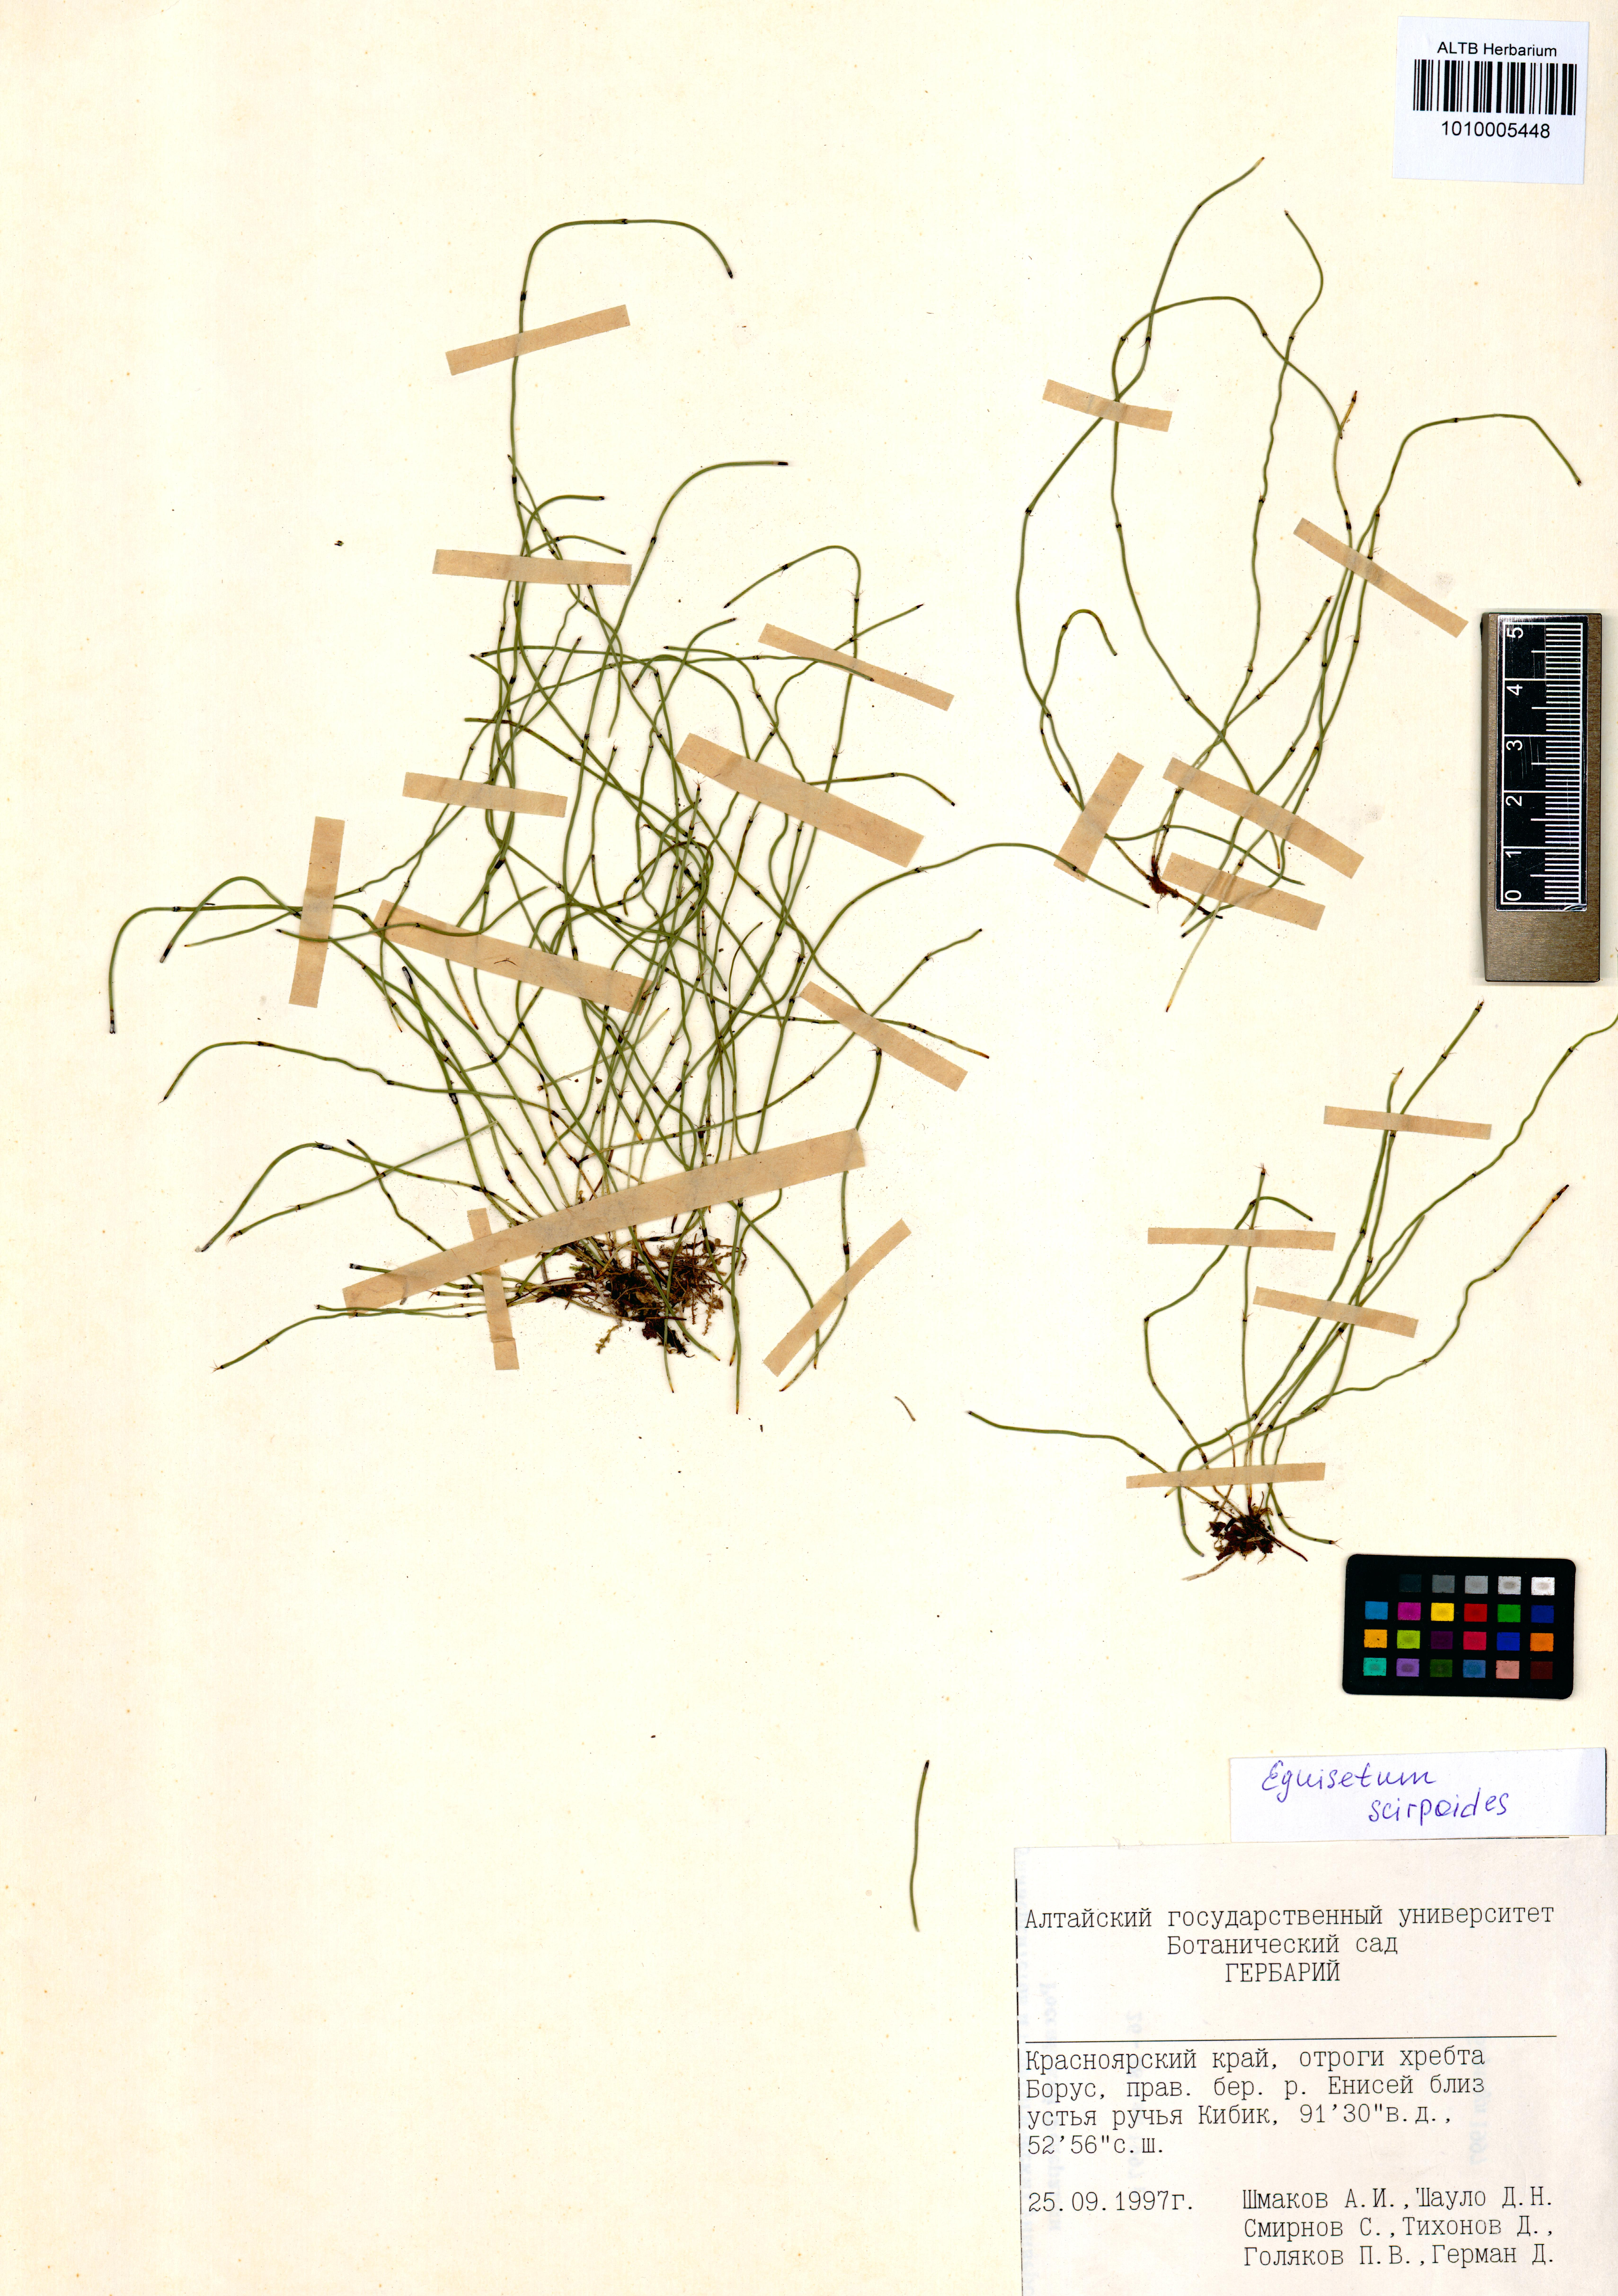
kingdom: Plantae
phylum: Tracheophyta
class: Polypodiopsida
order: Equisetales
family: Equisetaceae
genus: Equisetum
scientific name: Equisetum scirpoides
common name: Delicate horsetail
